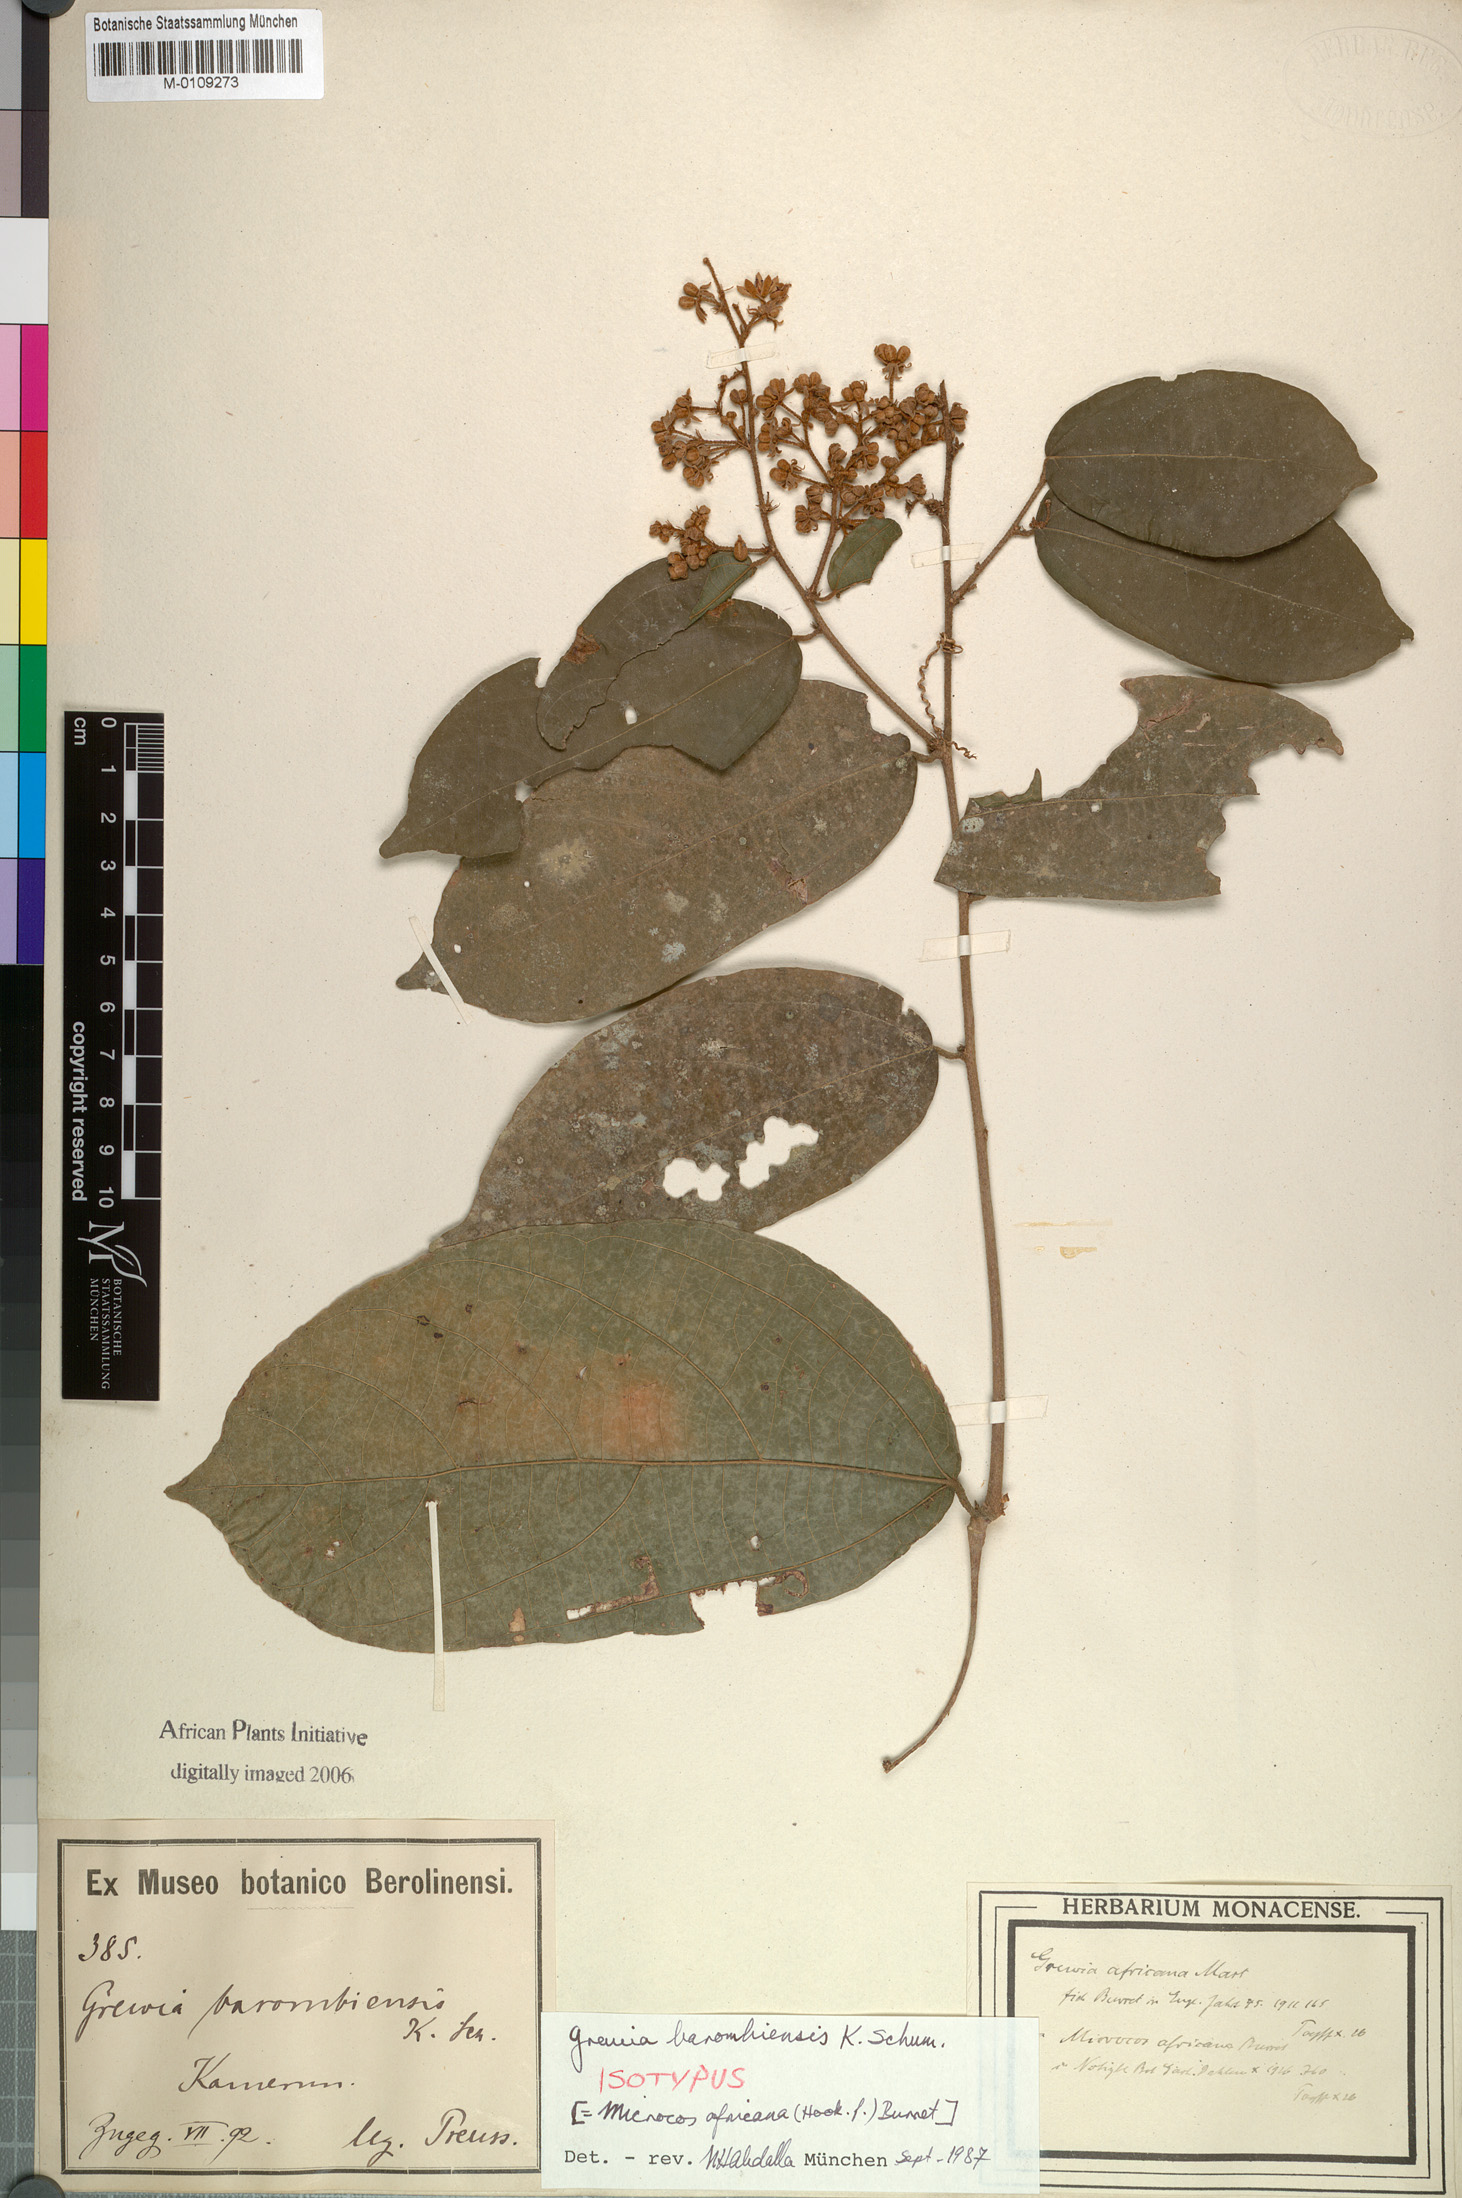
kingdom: Plantae
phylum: Tracheophyta
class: Magnoliopsida
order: Malvales
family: Malvaceae
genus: Microcos
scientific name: Microcos africana
